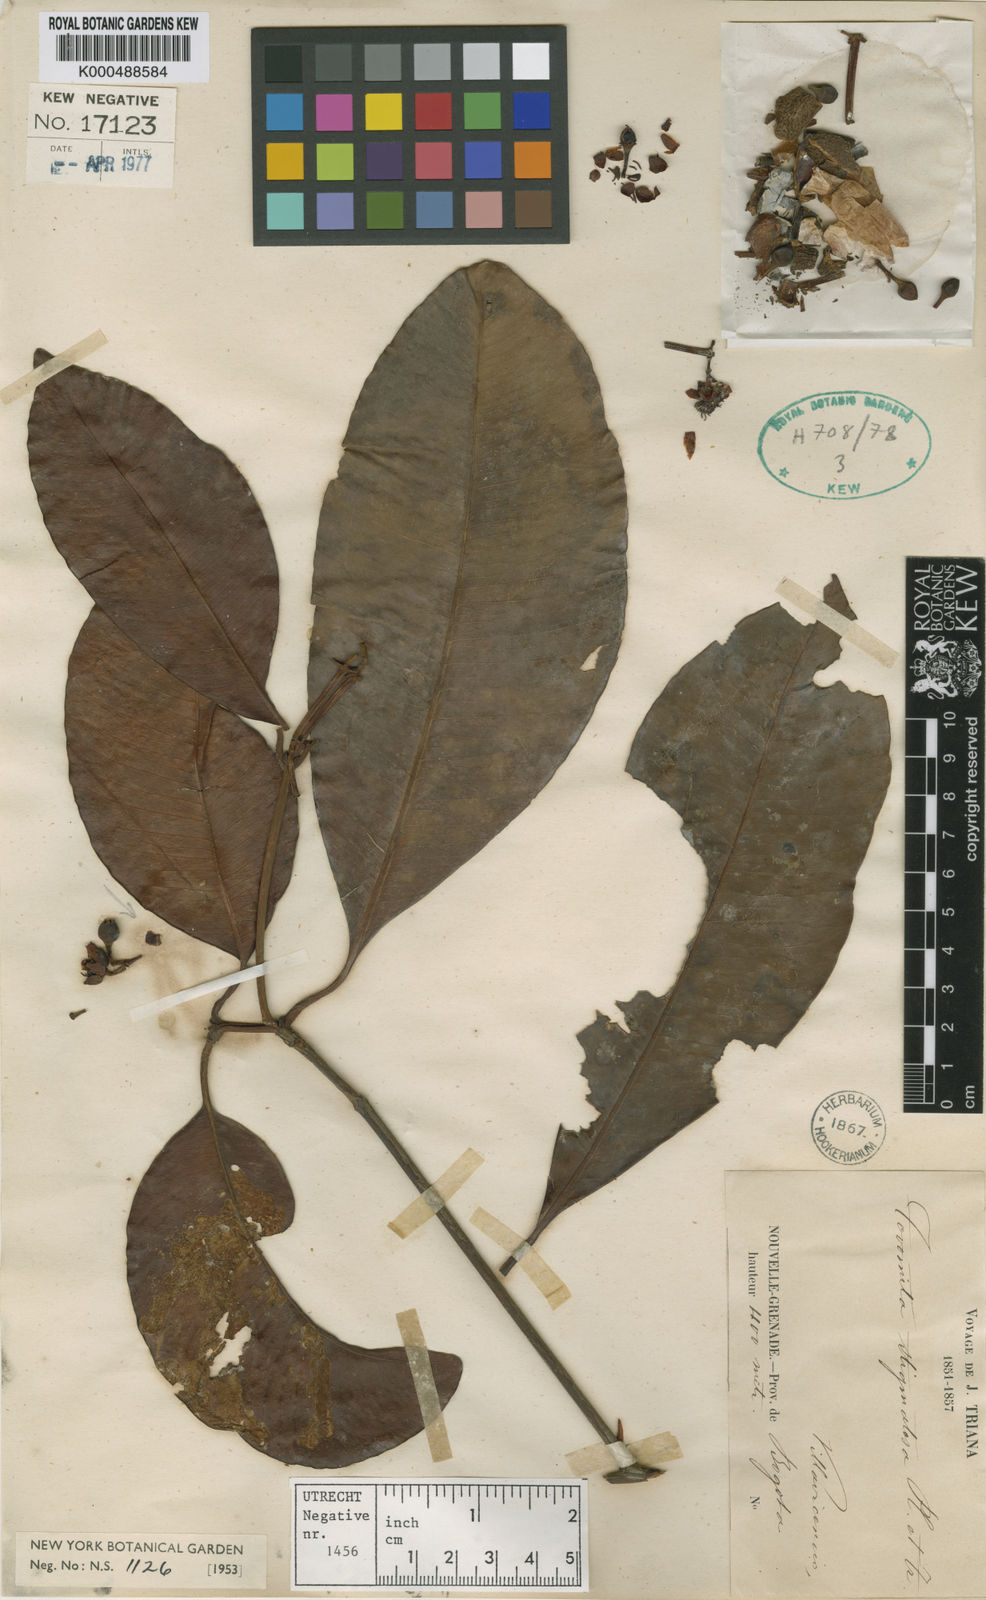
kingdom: Plantae
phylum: Tracheophyta
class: Magnoliopsida
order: Malpighiales
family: Clusiaceae
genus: Tovomita
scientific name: Tovomita umbellata
